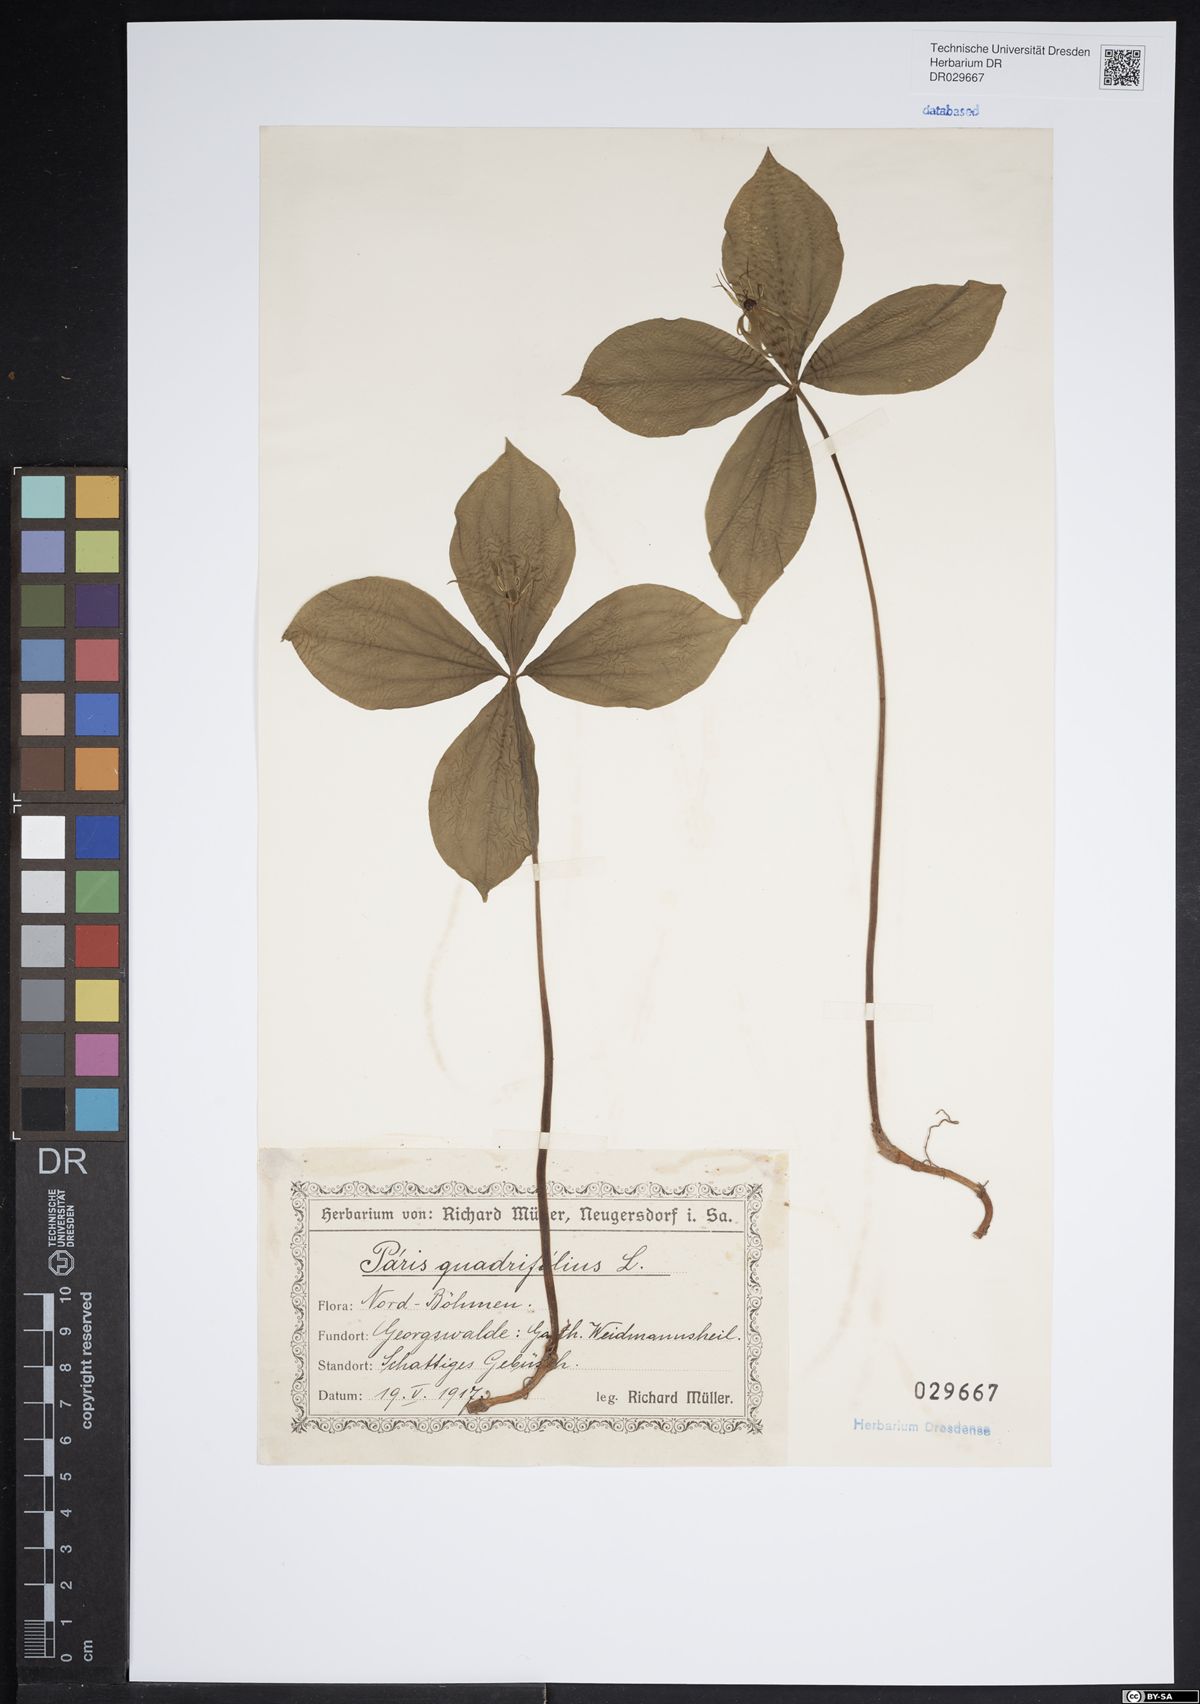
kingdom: Plantae
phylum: Tracheophyta
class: Liliopsida
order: Liliales
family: Melanthiaceae
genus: Paris
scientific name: Paris quadrifolia
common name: Herb-paris
